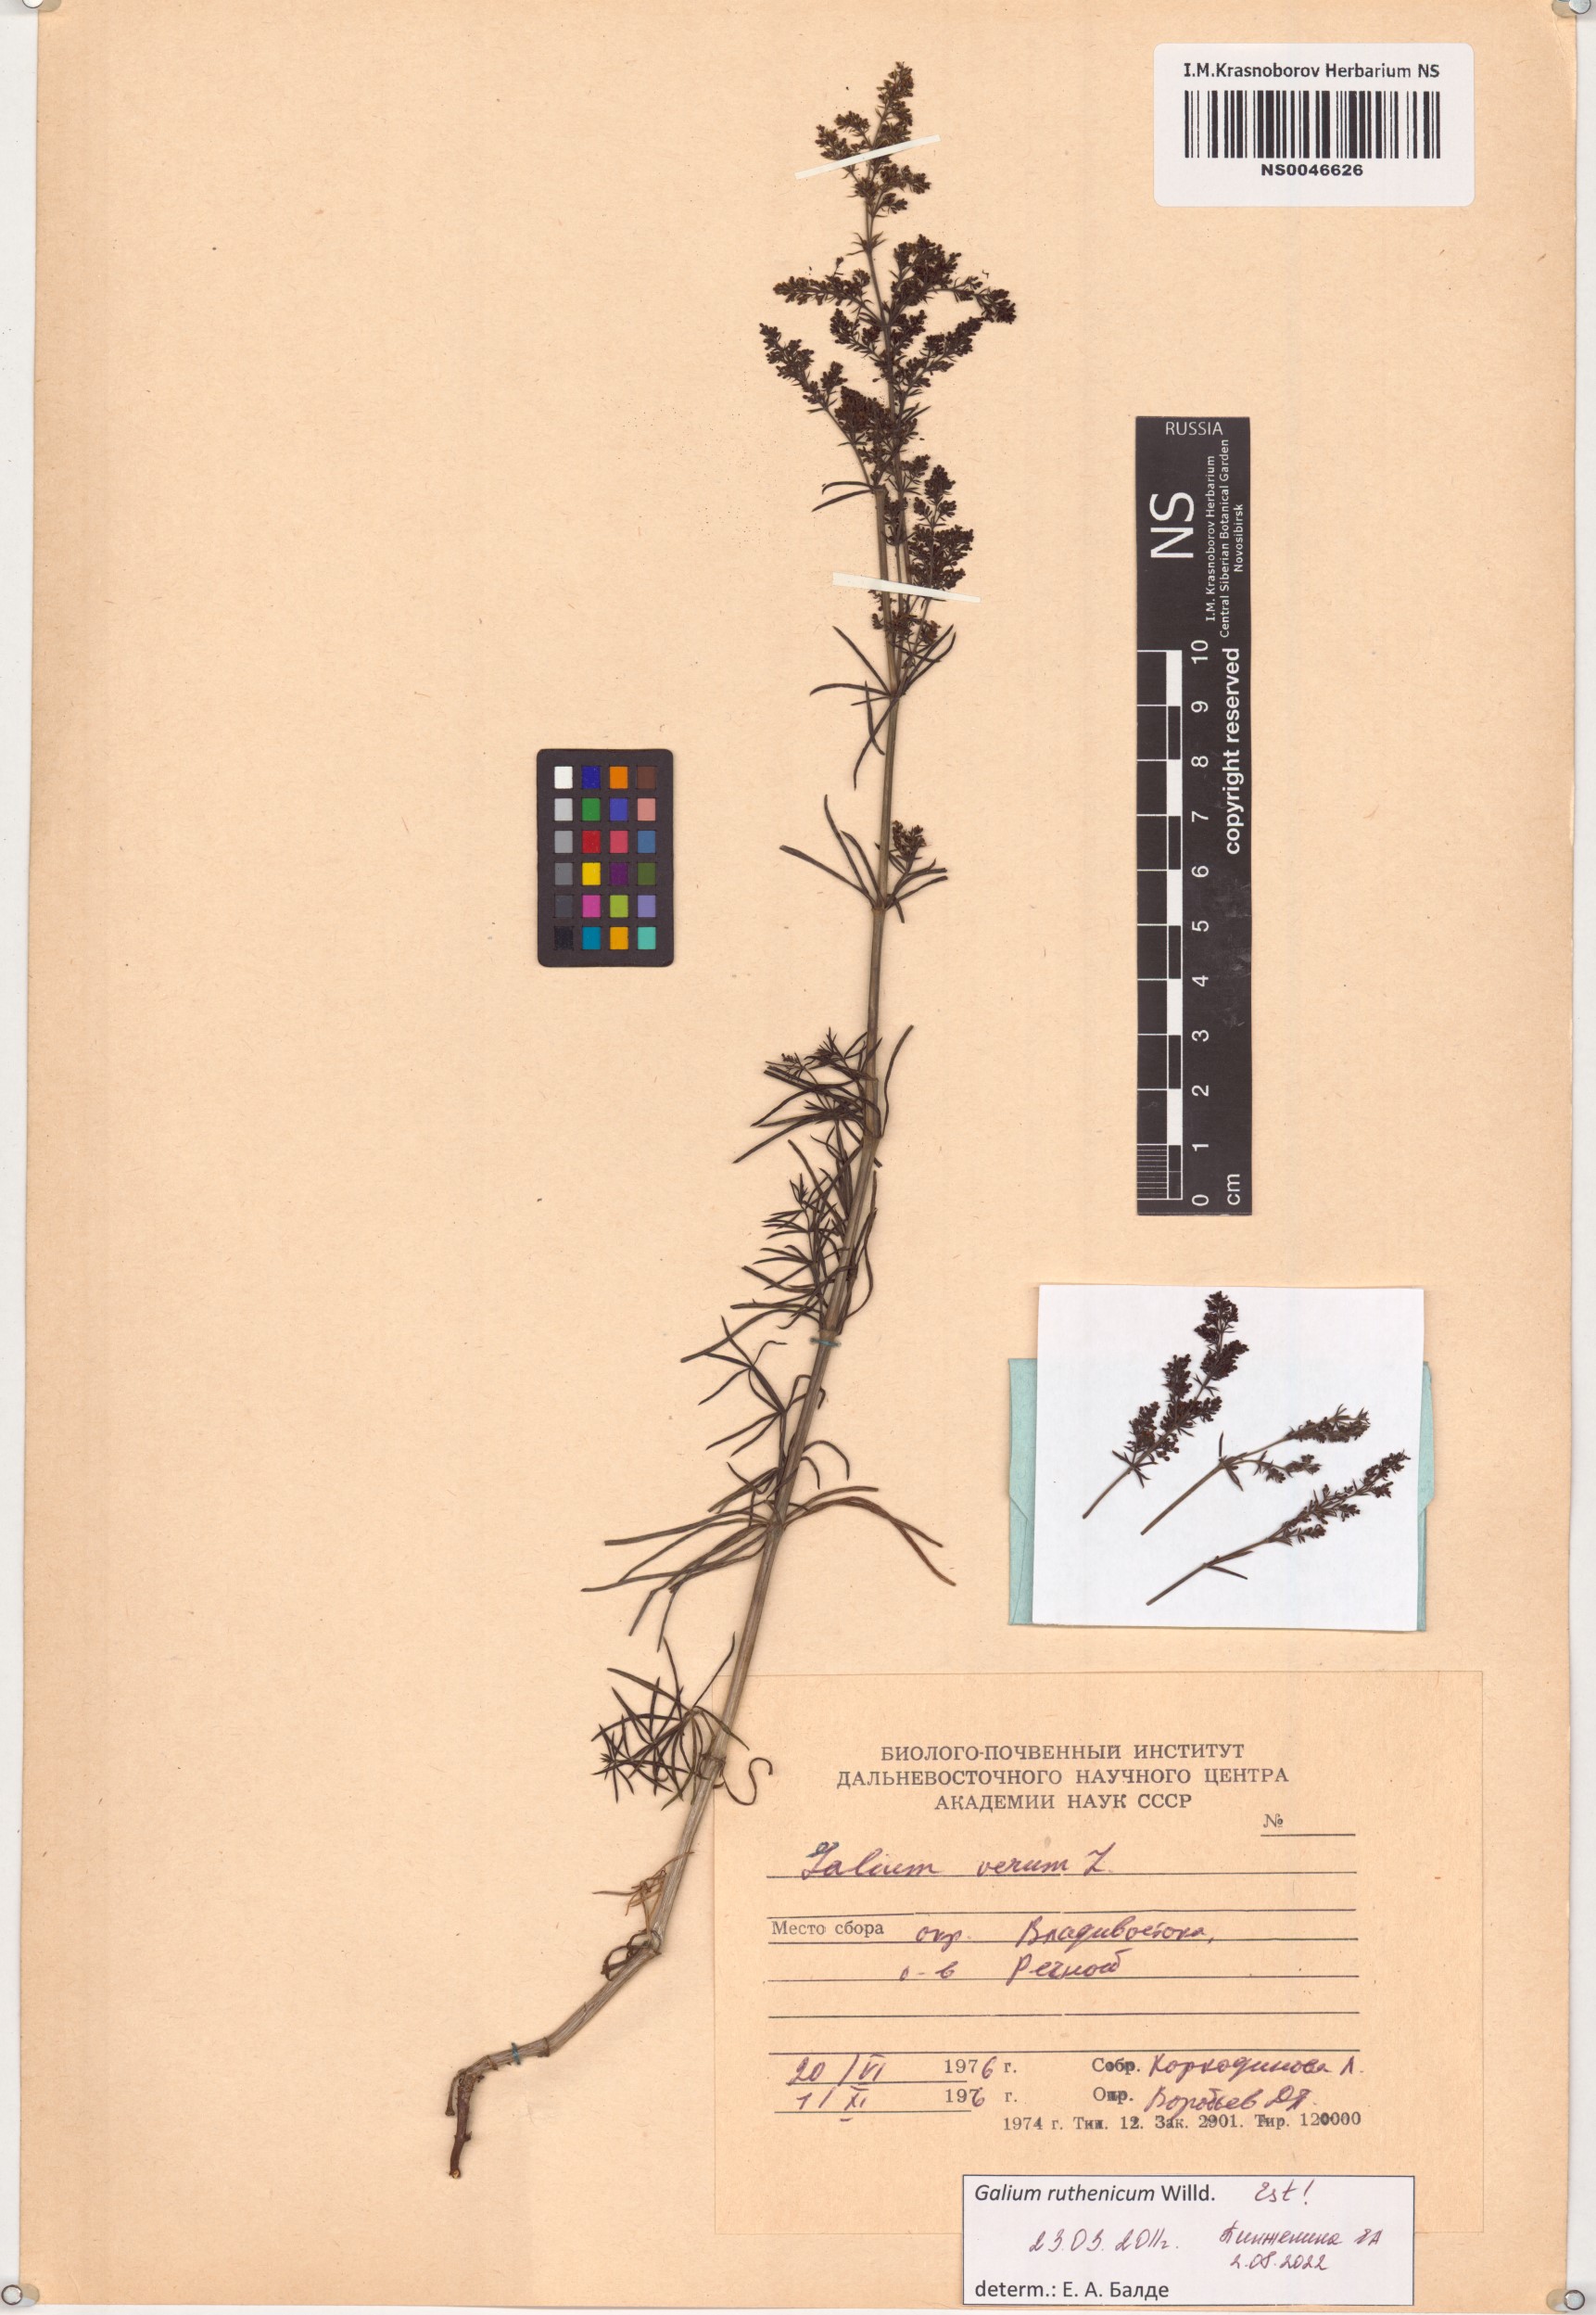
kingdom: Plantae
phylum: Tracheophyta
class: Magnoliopsida
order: Gentianales
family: Rubiaceae
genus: Galium
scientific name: Galium verum
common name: Lady's bedstraw
